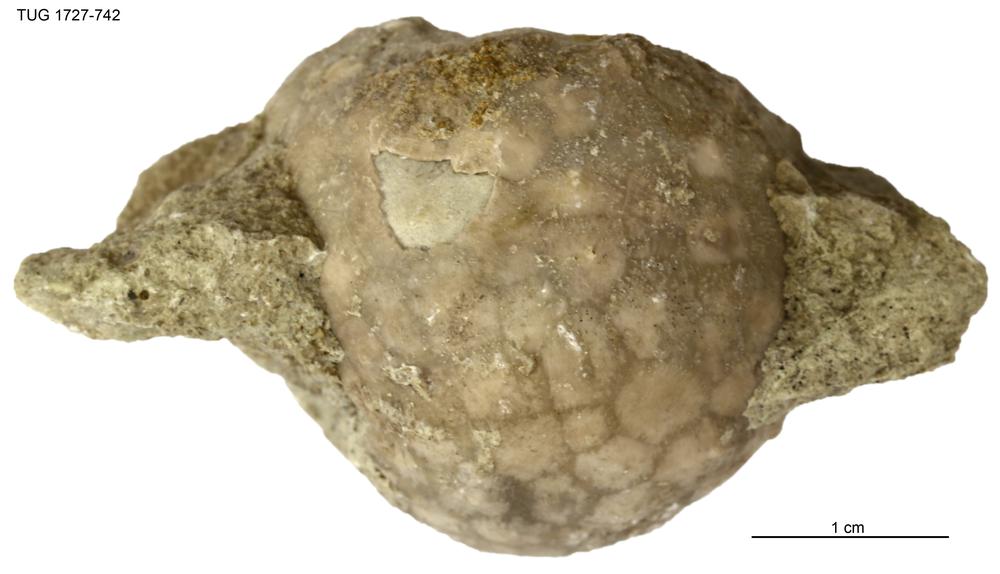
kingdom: Animalia
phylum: Echinodermata
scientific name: Echinodermata
